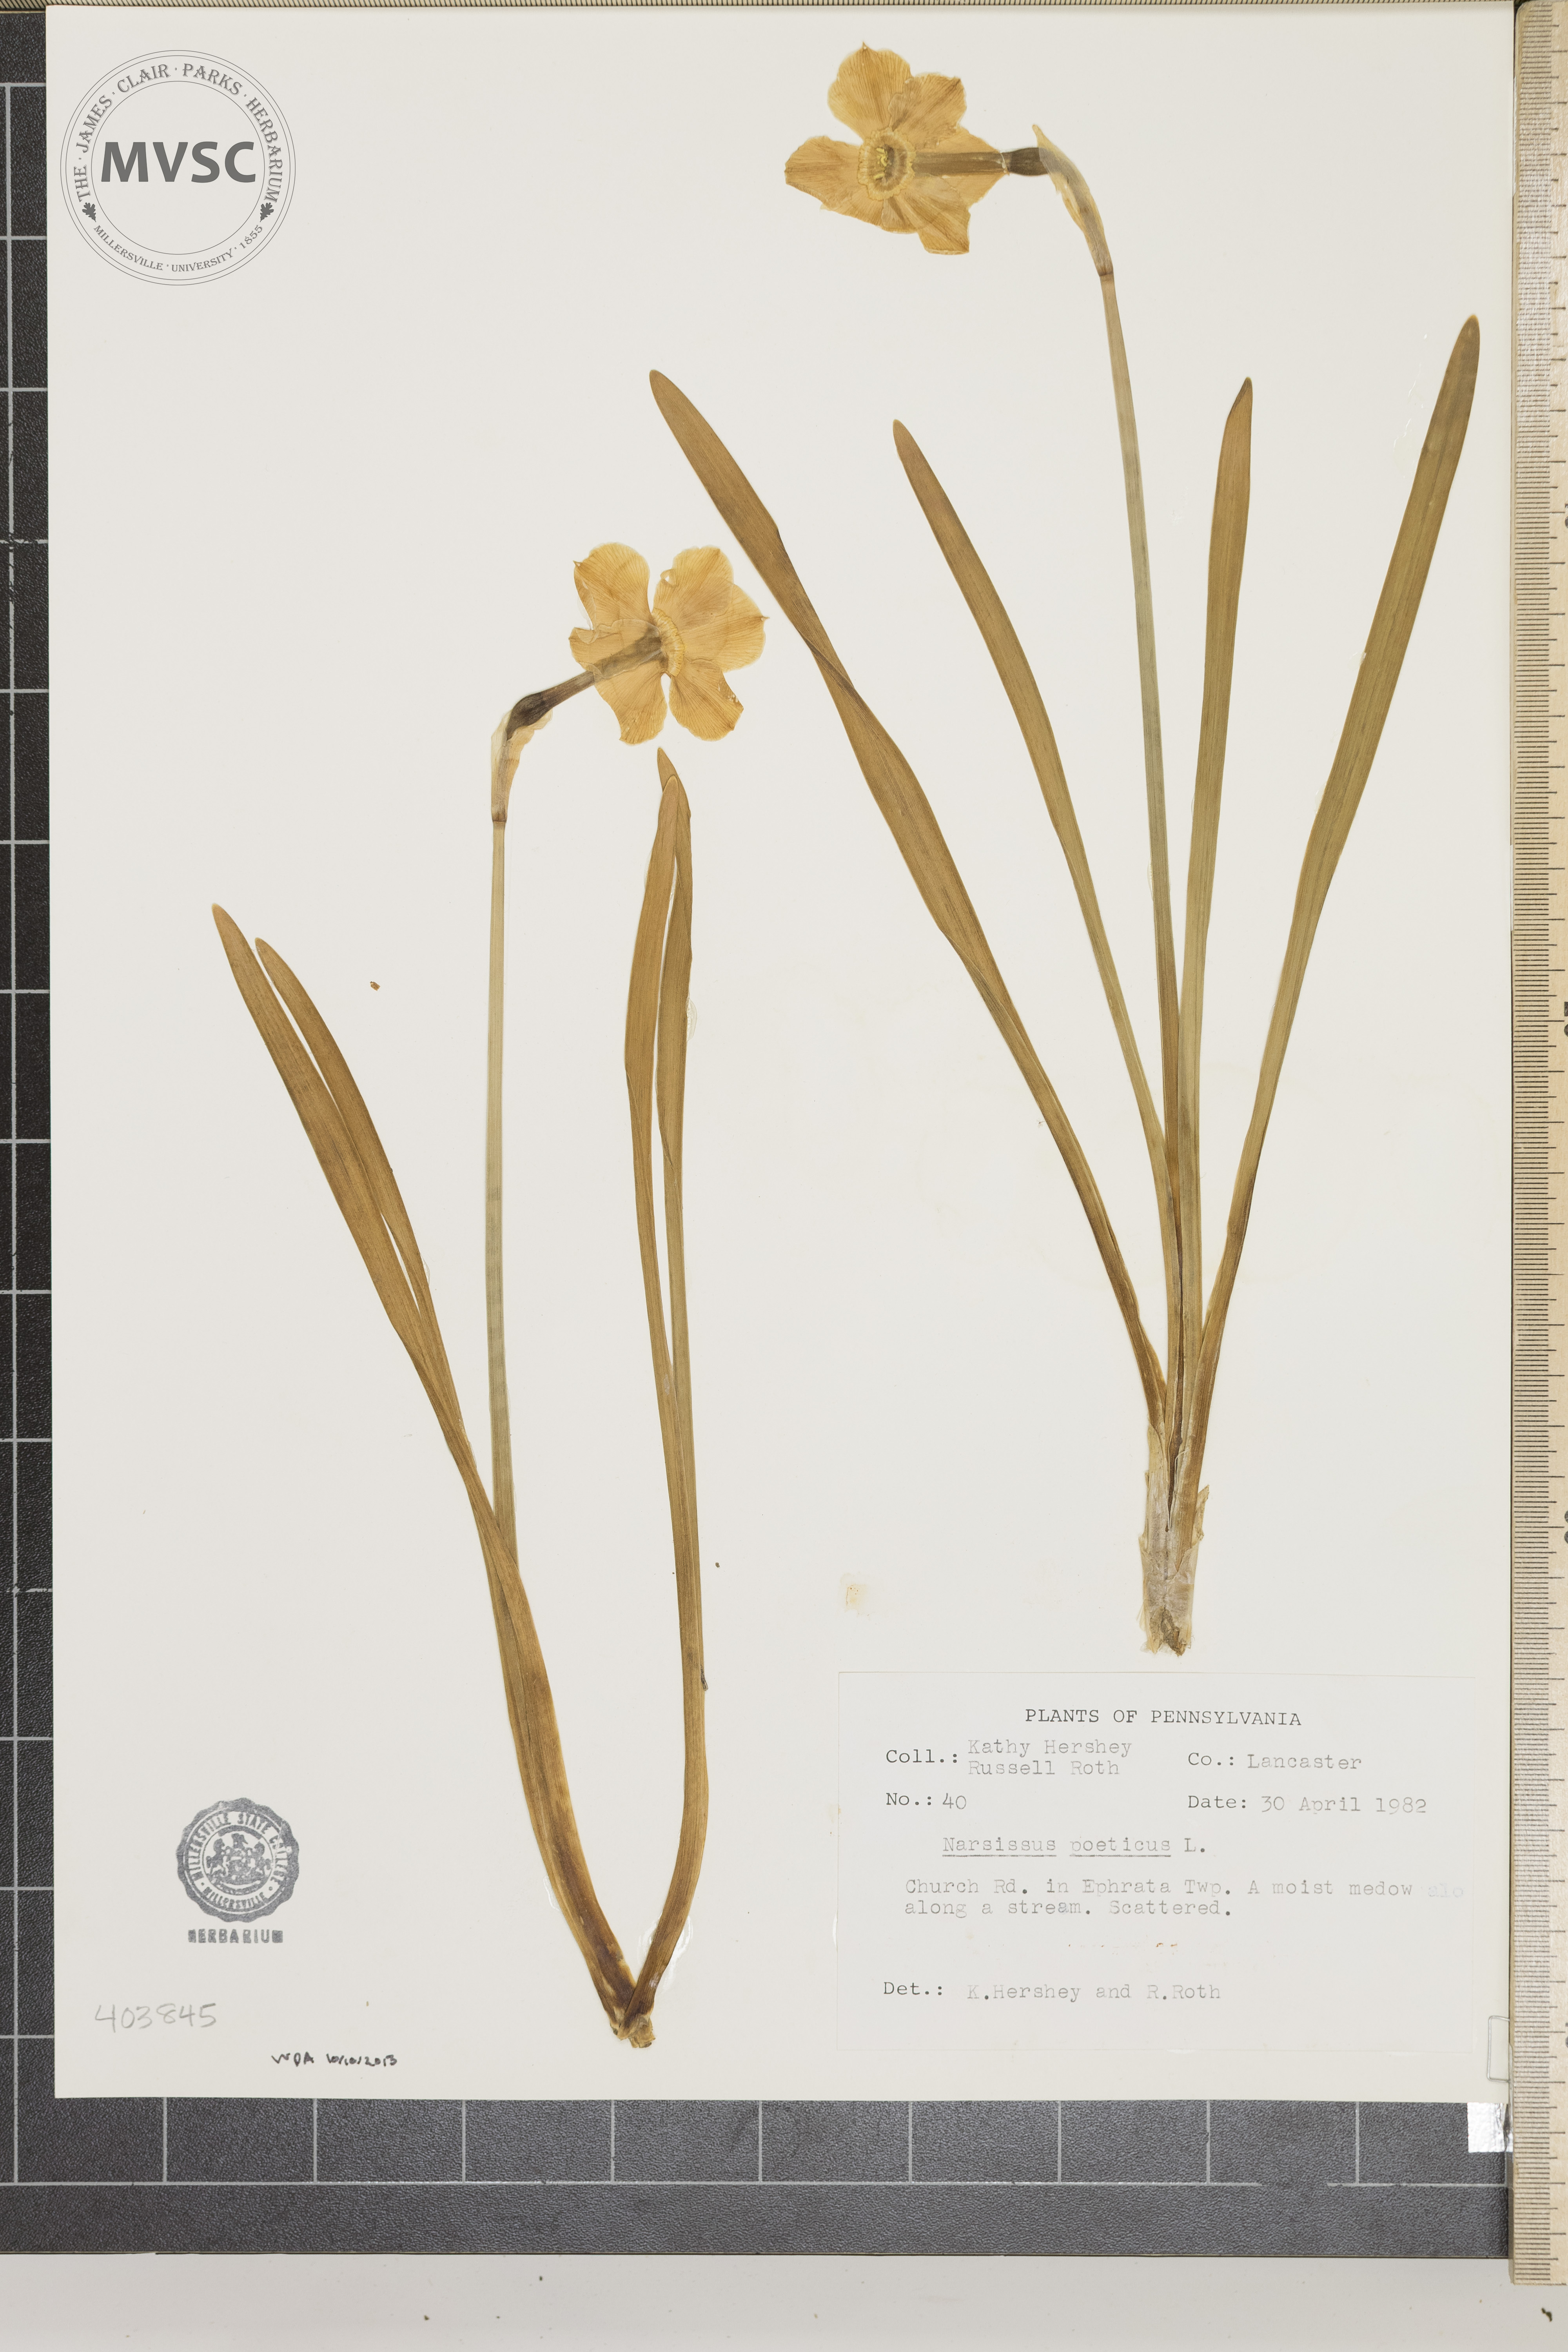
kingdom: Plantae
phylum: Tracheophyta
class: Liliopsida
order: Asparagales
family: Amaryllidaceae
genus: Narcissus
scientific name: Narcissus poeticus
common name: Poet's Narcissus
